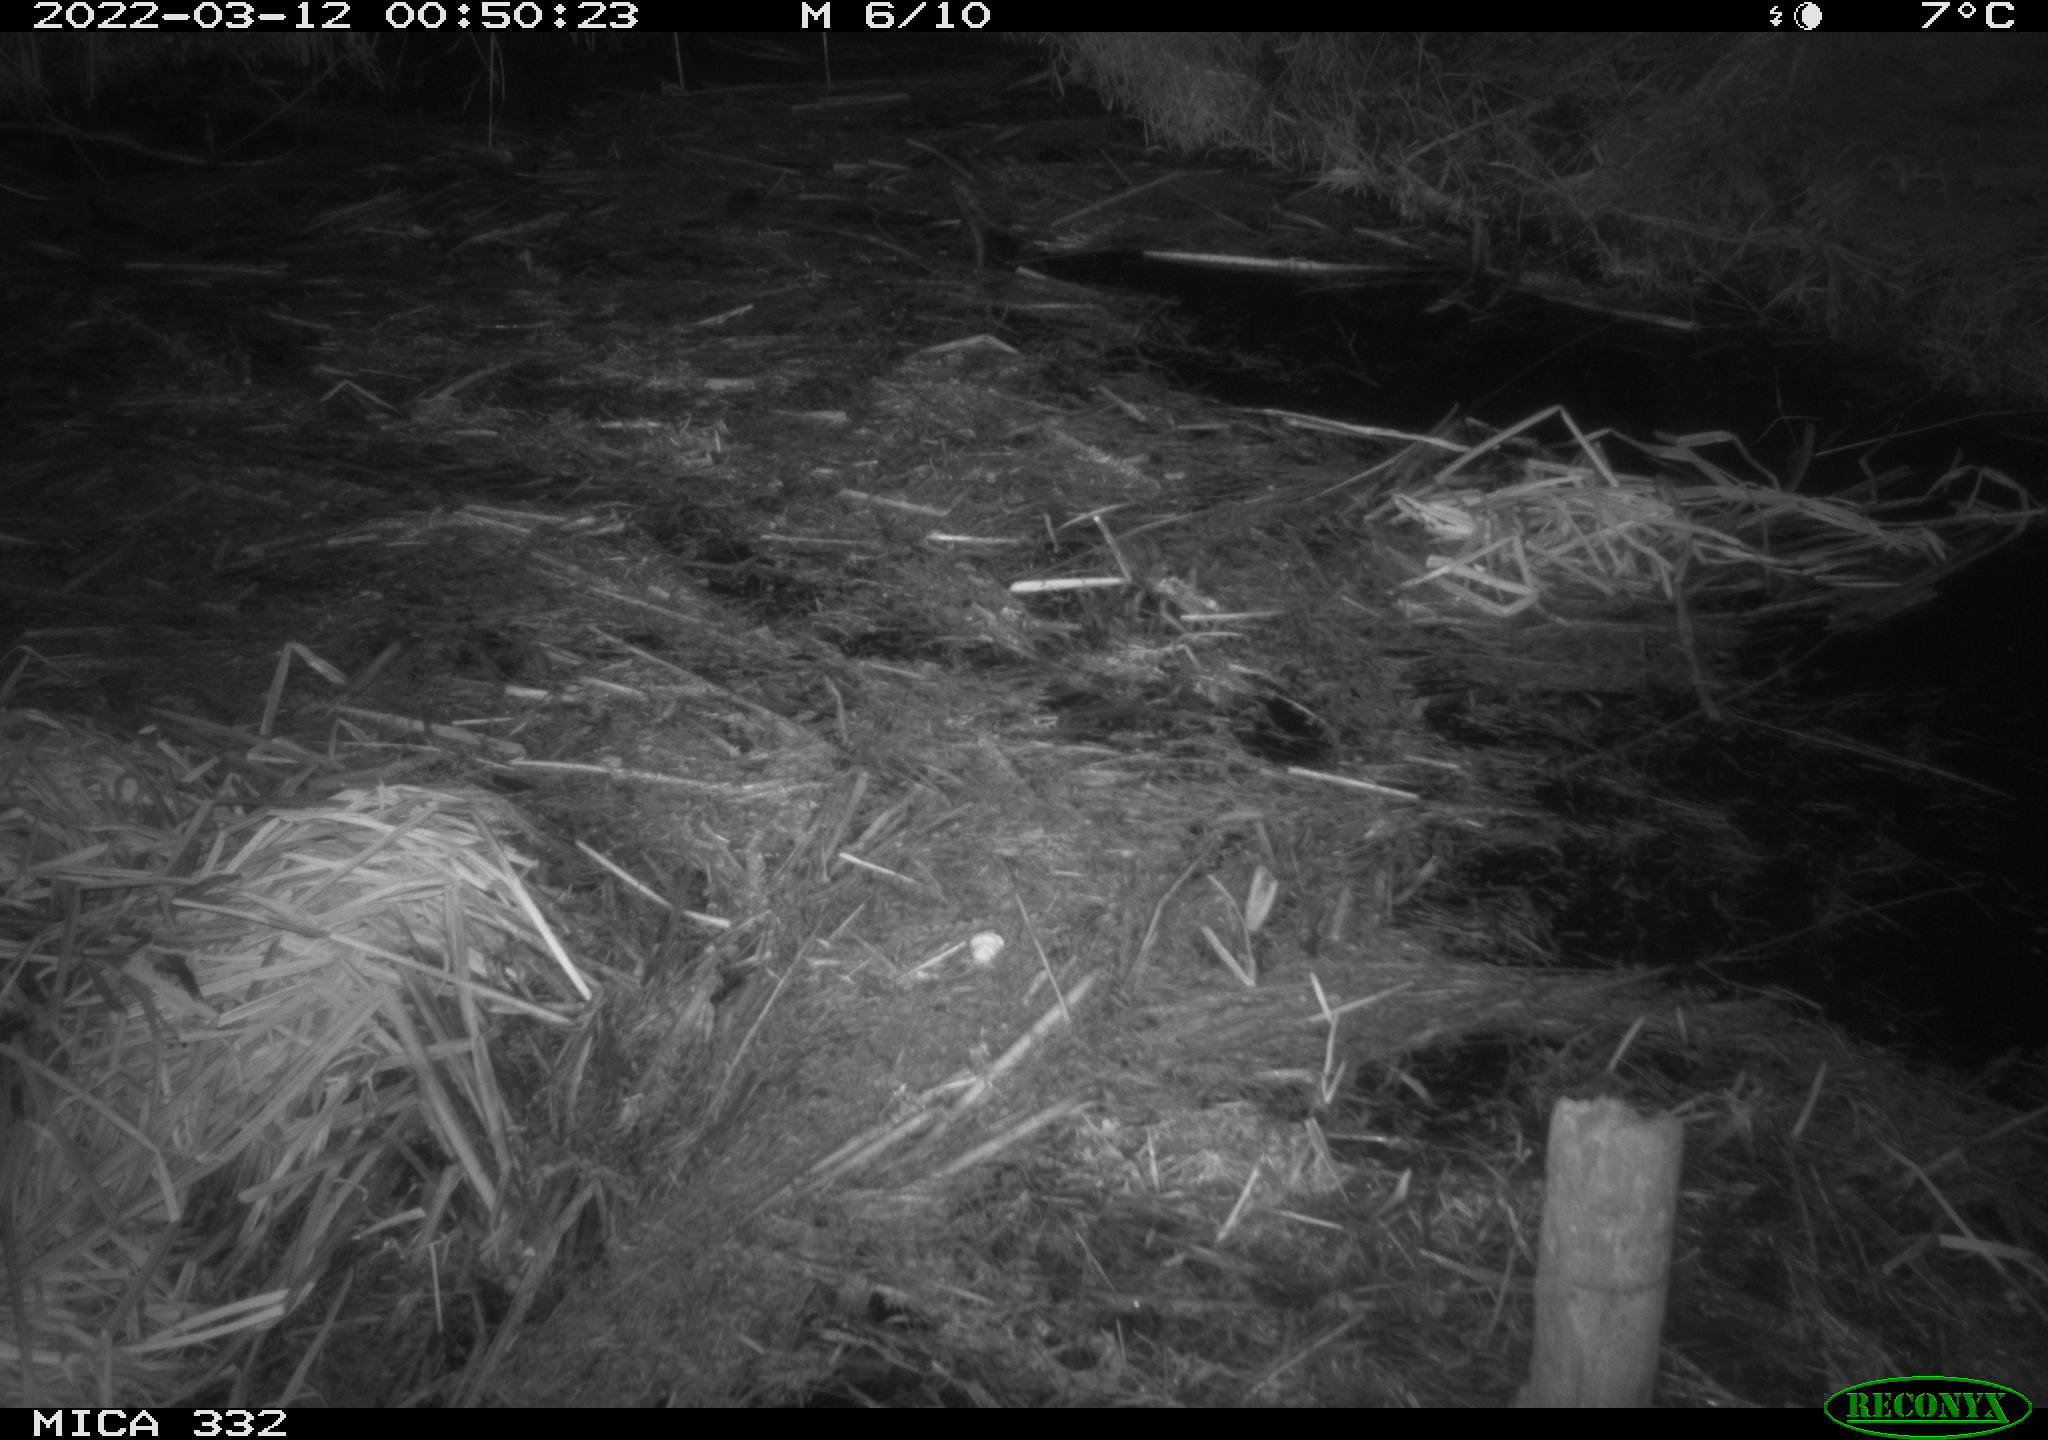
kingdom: Animalia
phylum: Chordata
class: Aves
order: Anseriformes
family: Anatidae
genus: Anas
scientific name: Anas platyrhynchos
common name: Mallard
